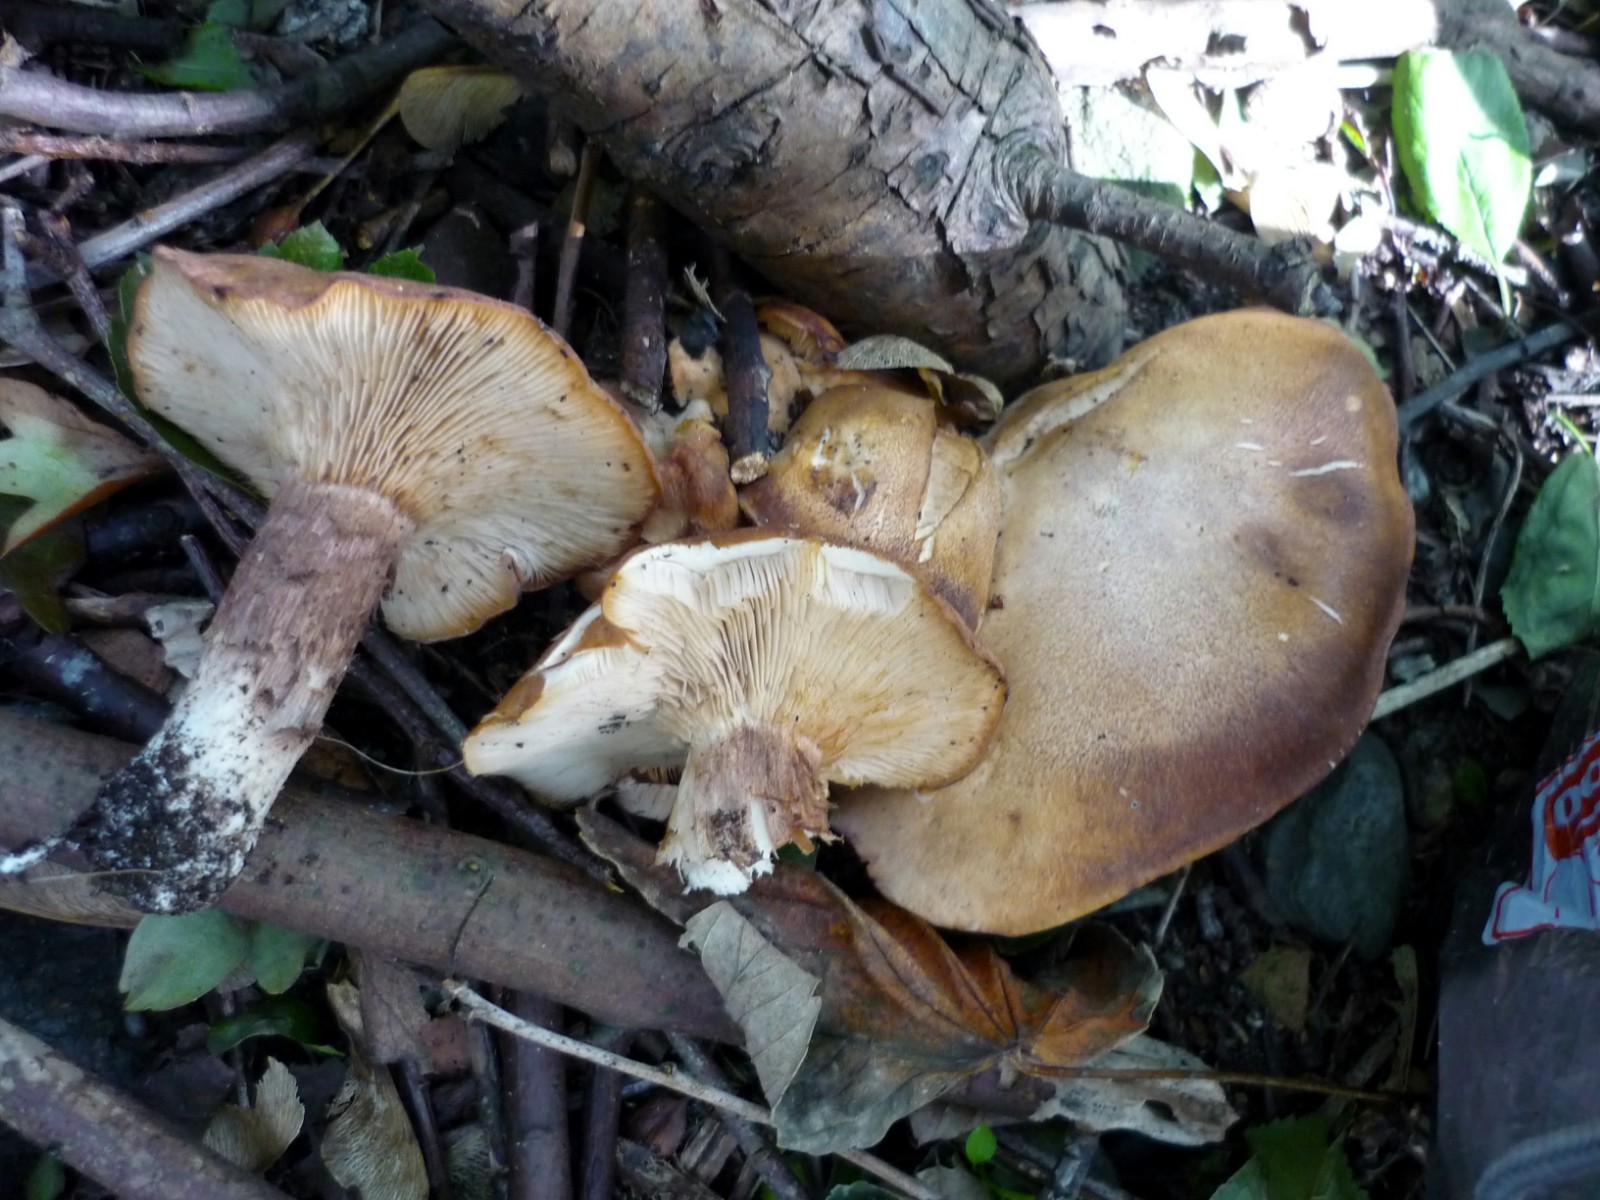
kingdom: Fungi
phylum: Basidiomycota
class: Agaricomycetes
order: Agaricales
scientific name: Agaricales
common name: champignonordenen
